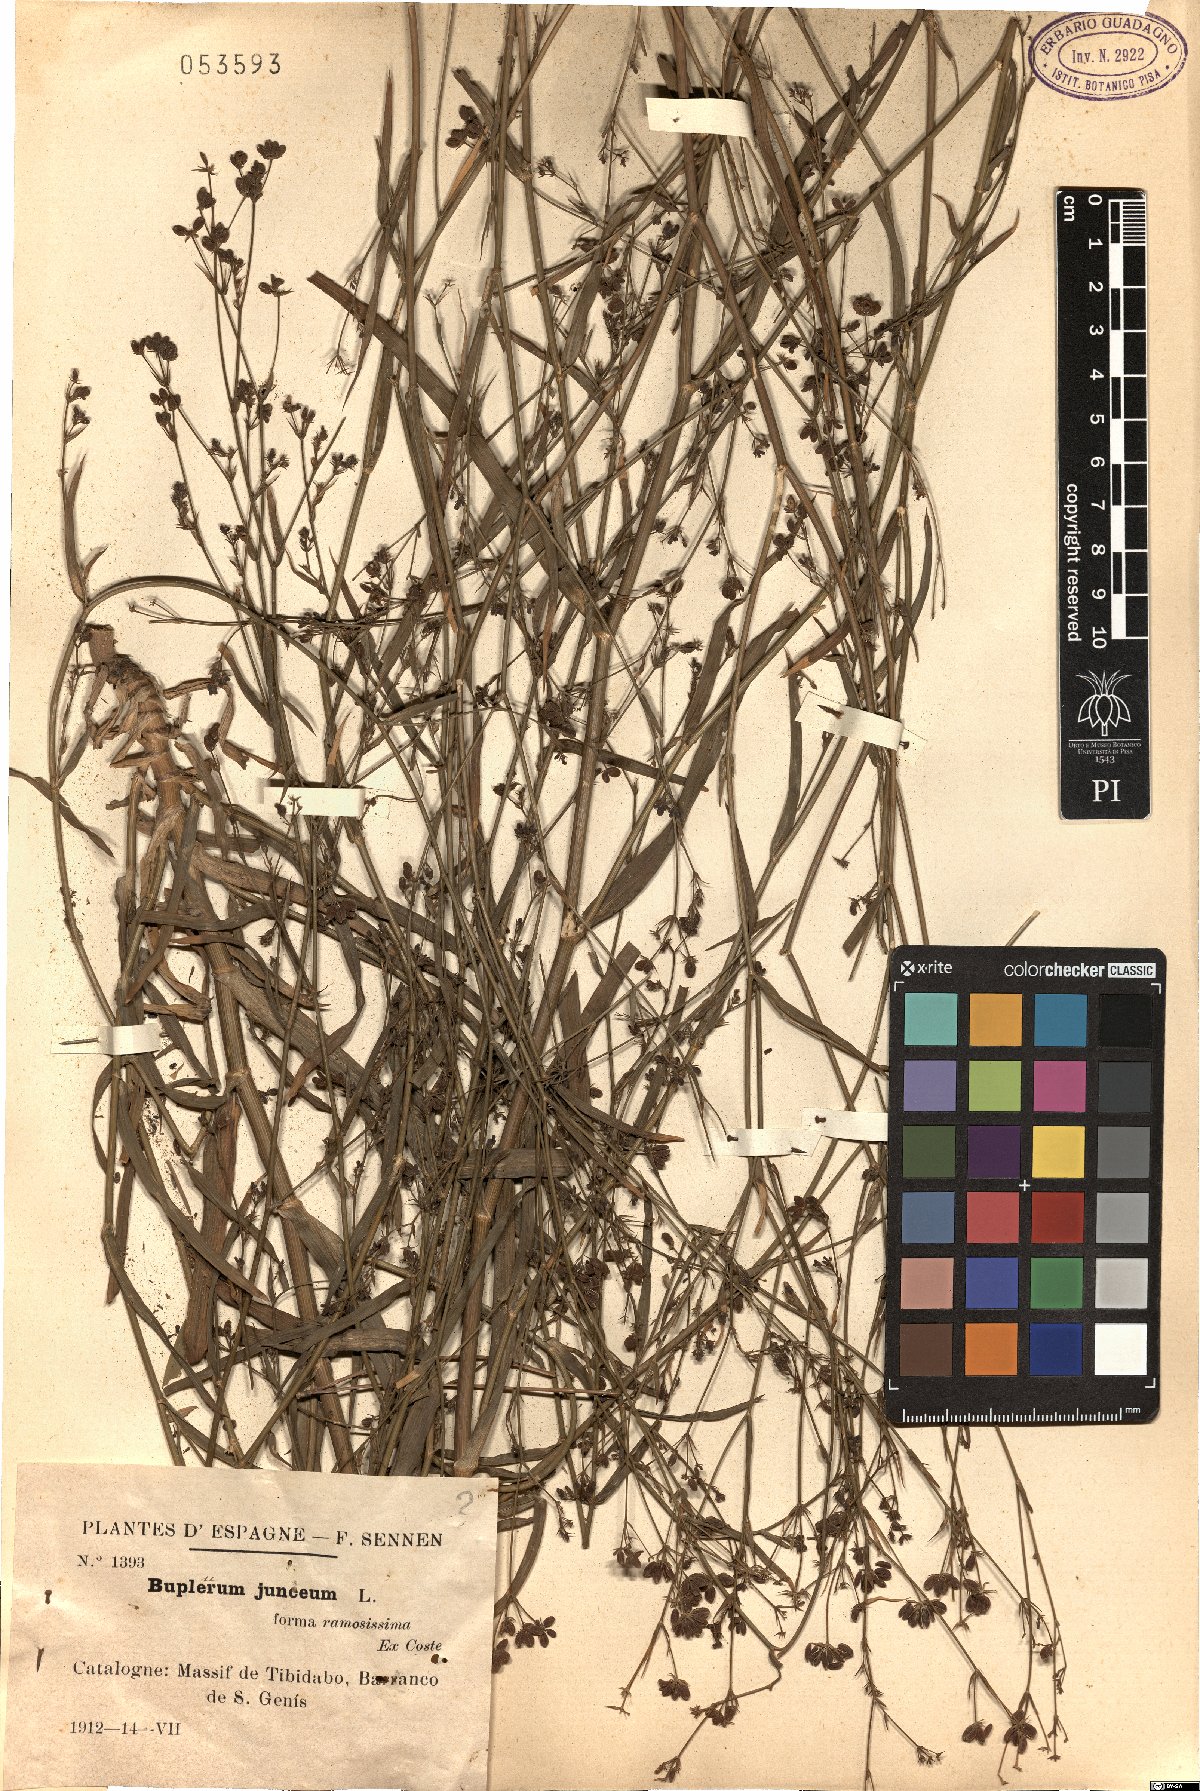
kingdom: Plantae
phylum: Tracheophyta
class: Magnoliopsida
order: Apiales
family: Apiaceae
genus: Bupleurum
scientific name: Bupleurum praealtum
